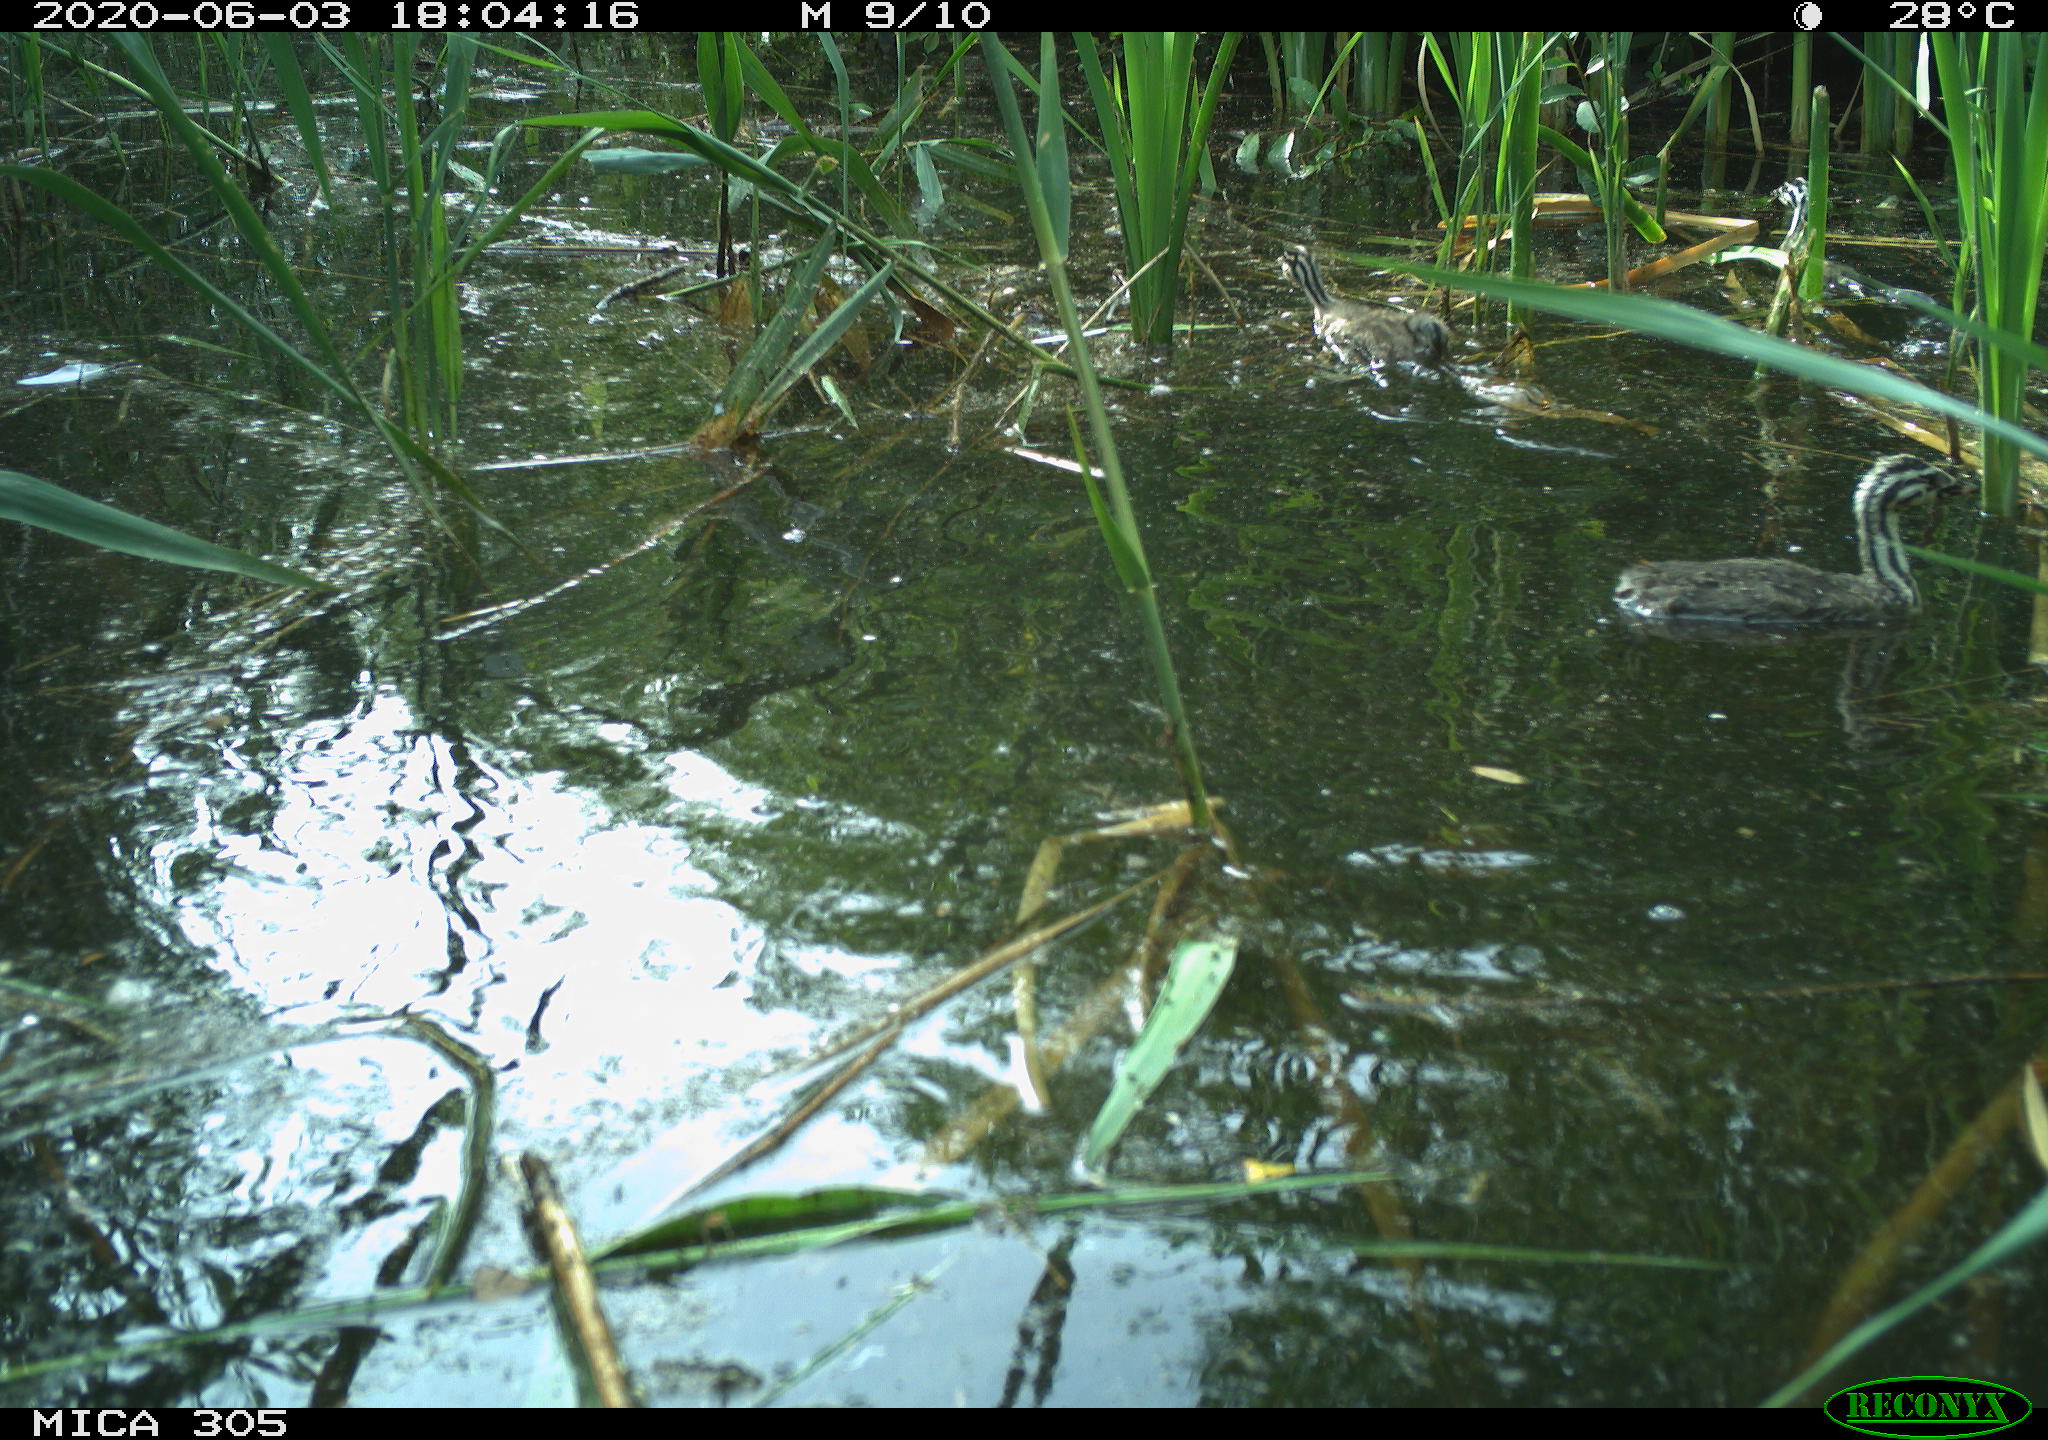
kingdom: Animalia
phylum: Chordata
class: Aves
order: Podicipediformes
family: Podicipedidae
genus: Podiceps
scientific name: Podiceps cristatus
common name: Great crested grebe
